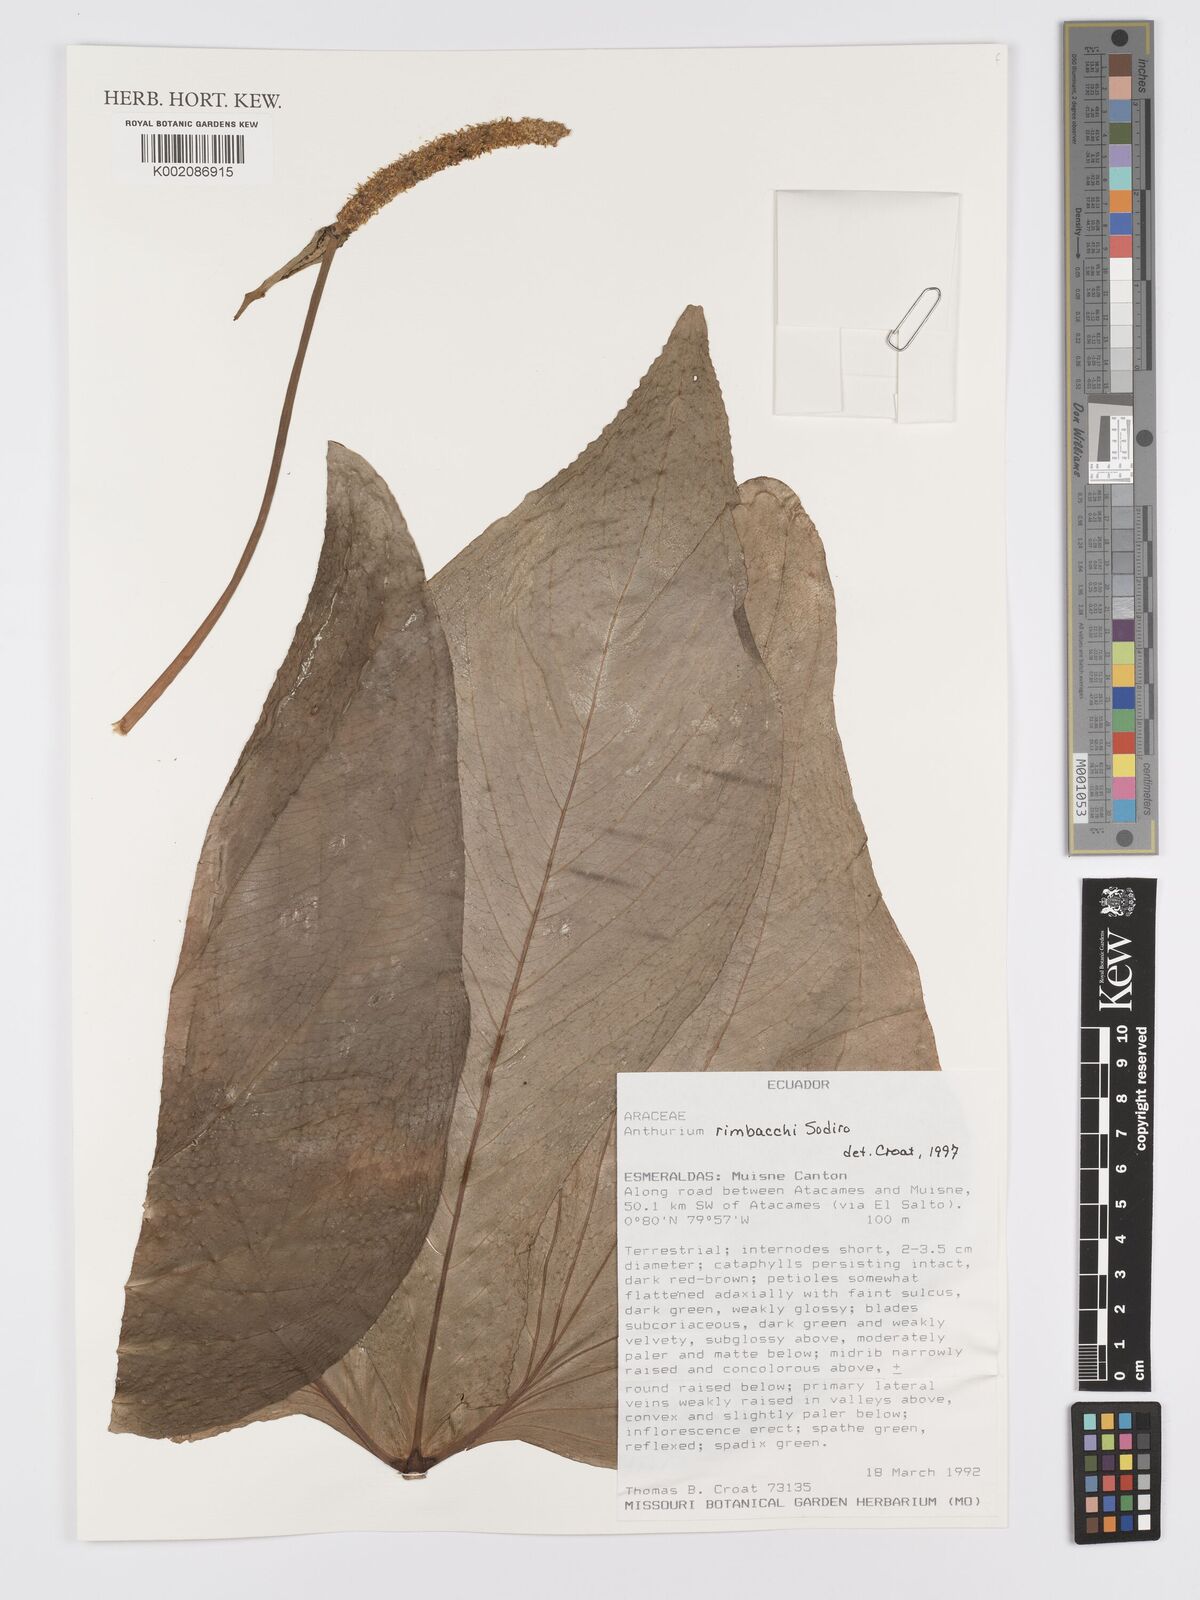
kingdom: Plantae
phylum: Tracheophyta
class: Liliopsida
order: Alismatales
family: Araceae
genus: Anthurium
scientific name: Anthurium rimbachii
